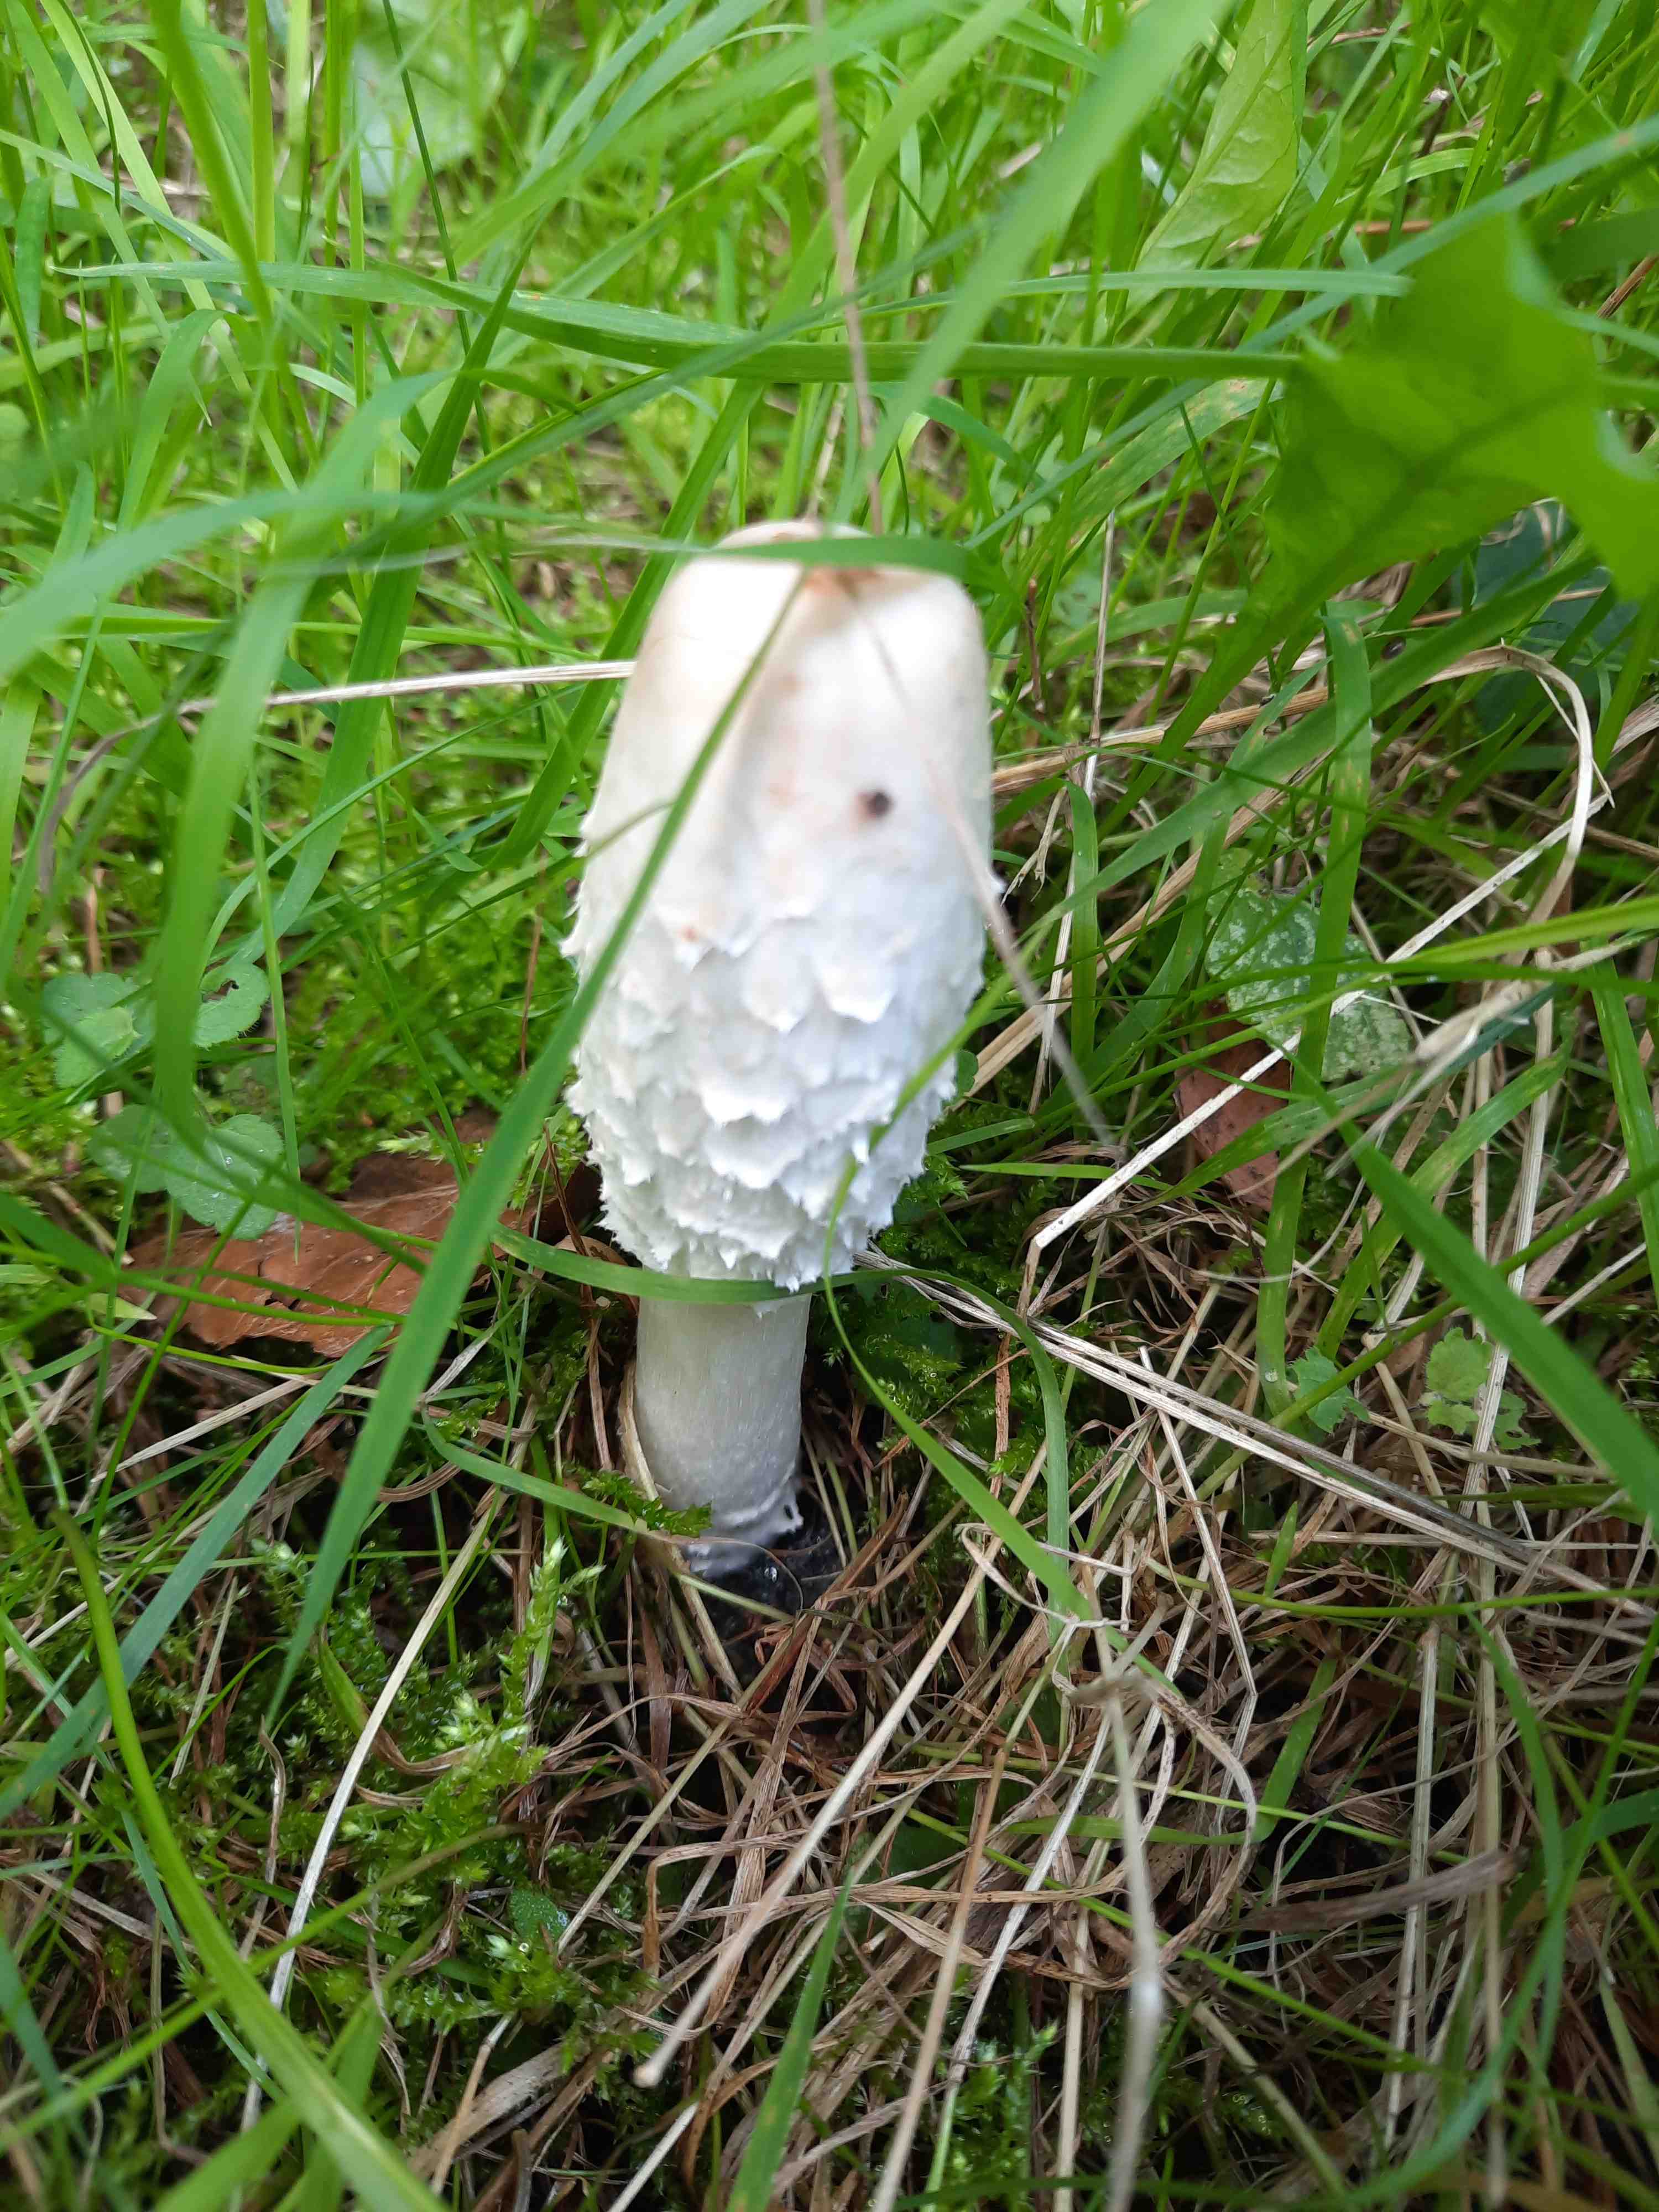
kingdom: Fungi
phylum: Basidiomycota
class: Agaricomycetes
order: Agaricales
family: Agaricaceae
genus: Coprinus
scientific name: Coprinus comatus
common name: stor parykhat
